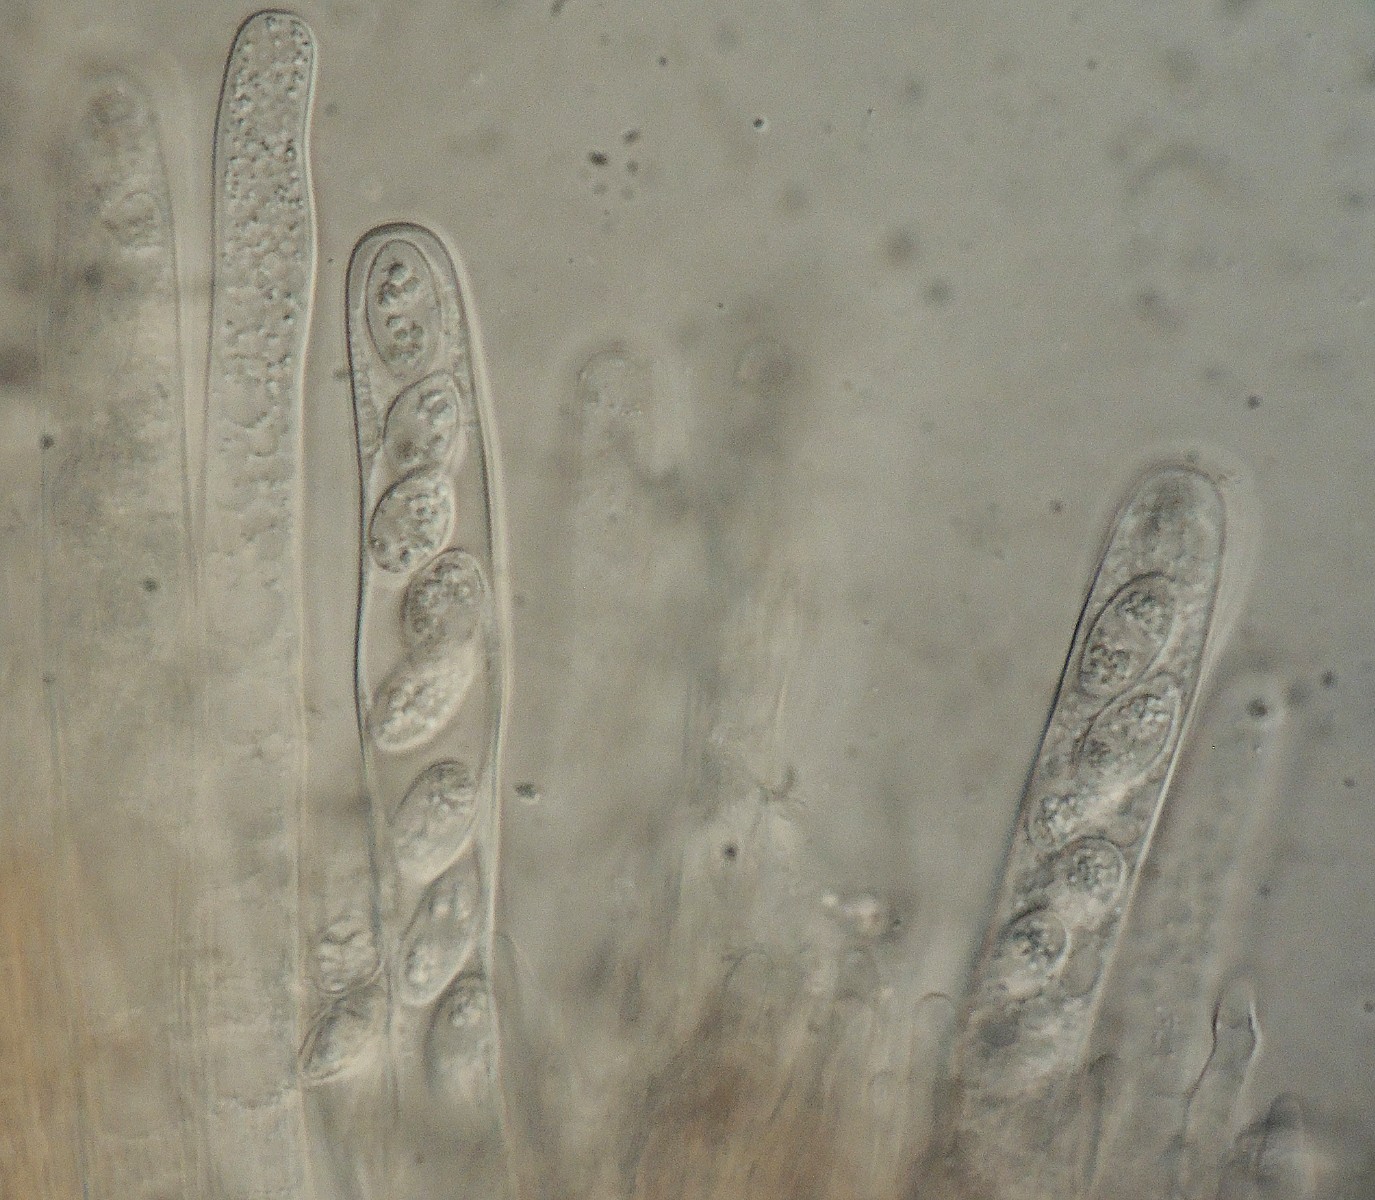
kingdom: Fungi
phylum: Ascomycota
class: Leotiomycetes
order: Helotiales
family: Helotiaceae
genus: Bryoscyphus
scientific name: Bryoscyphus rhytidiadelphi
